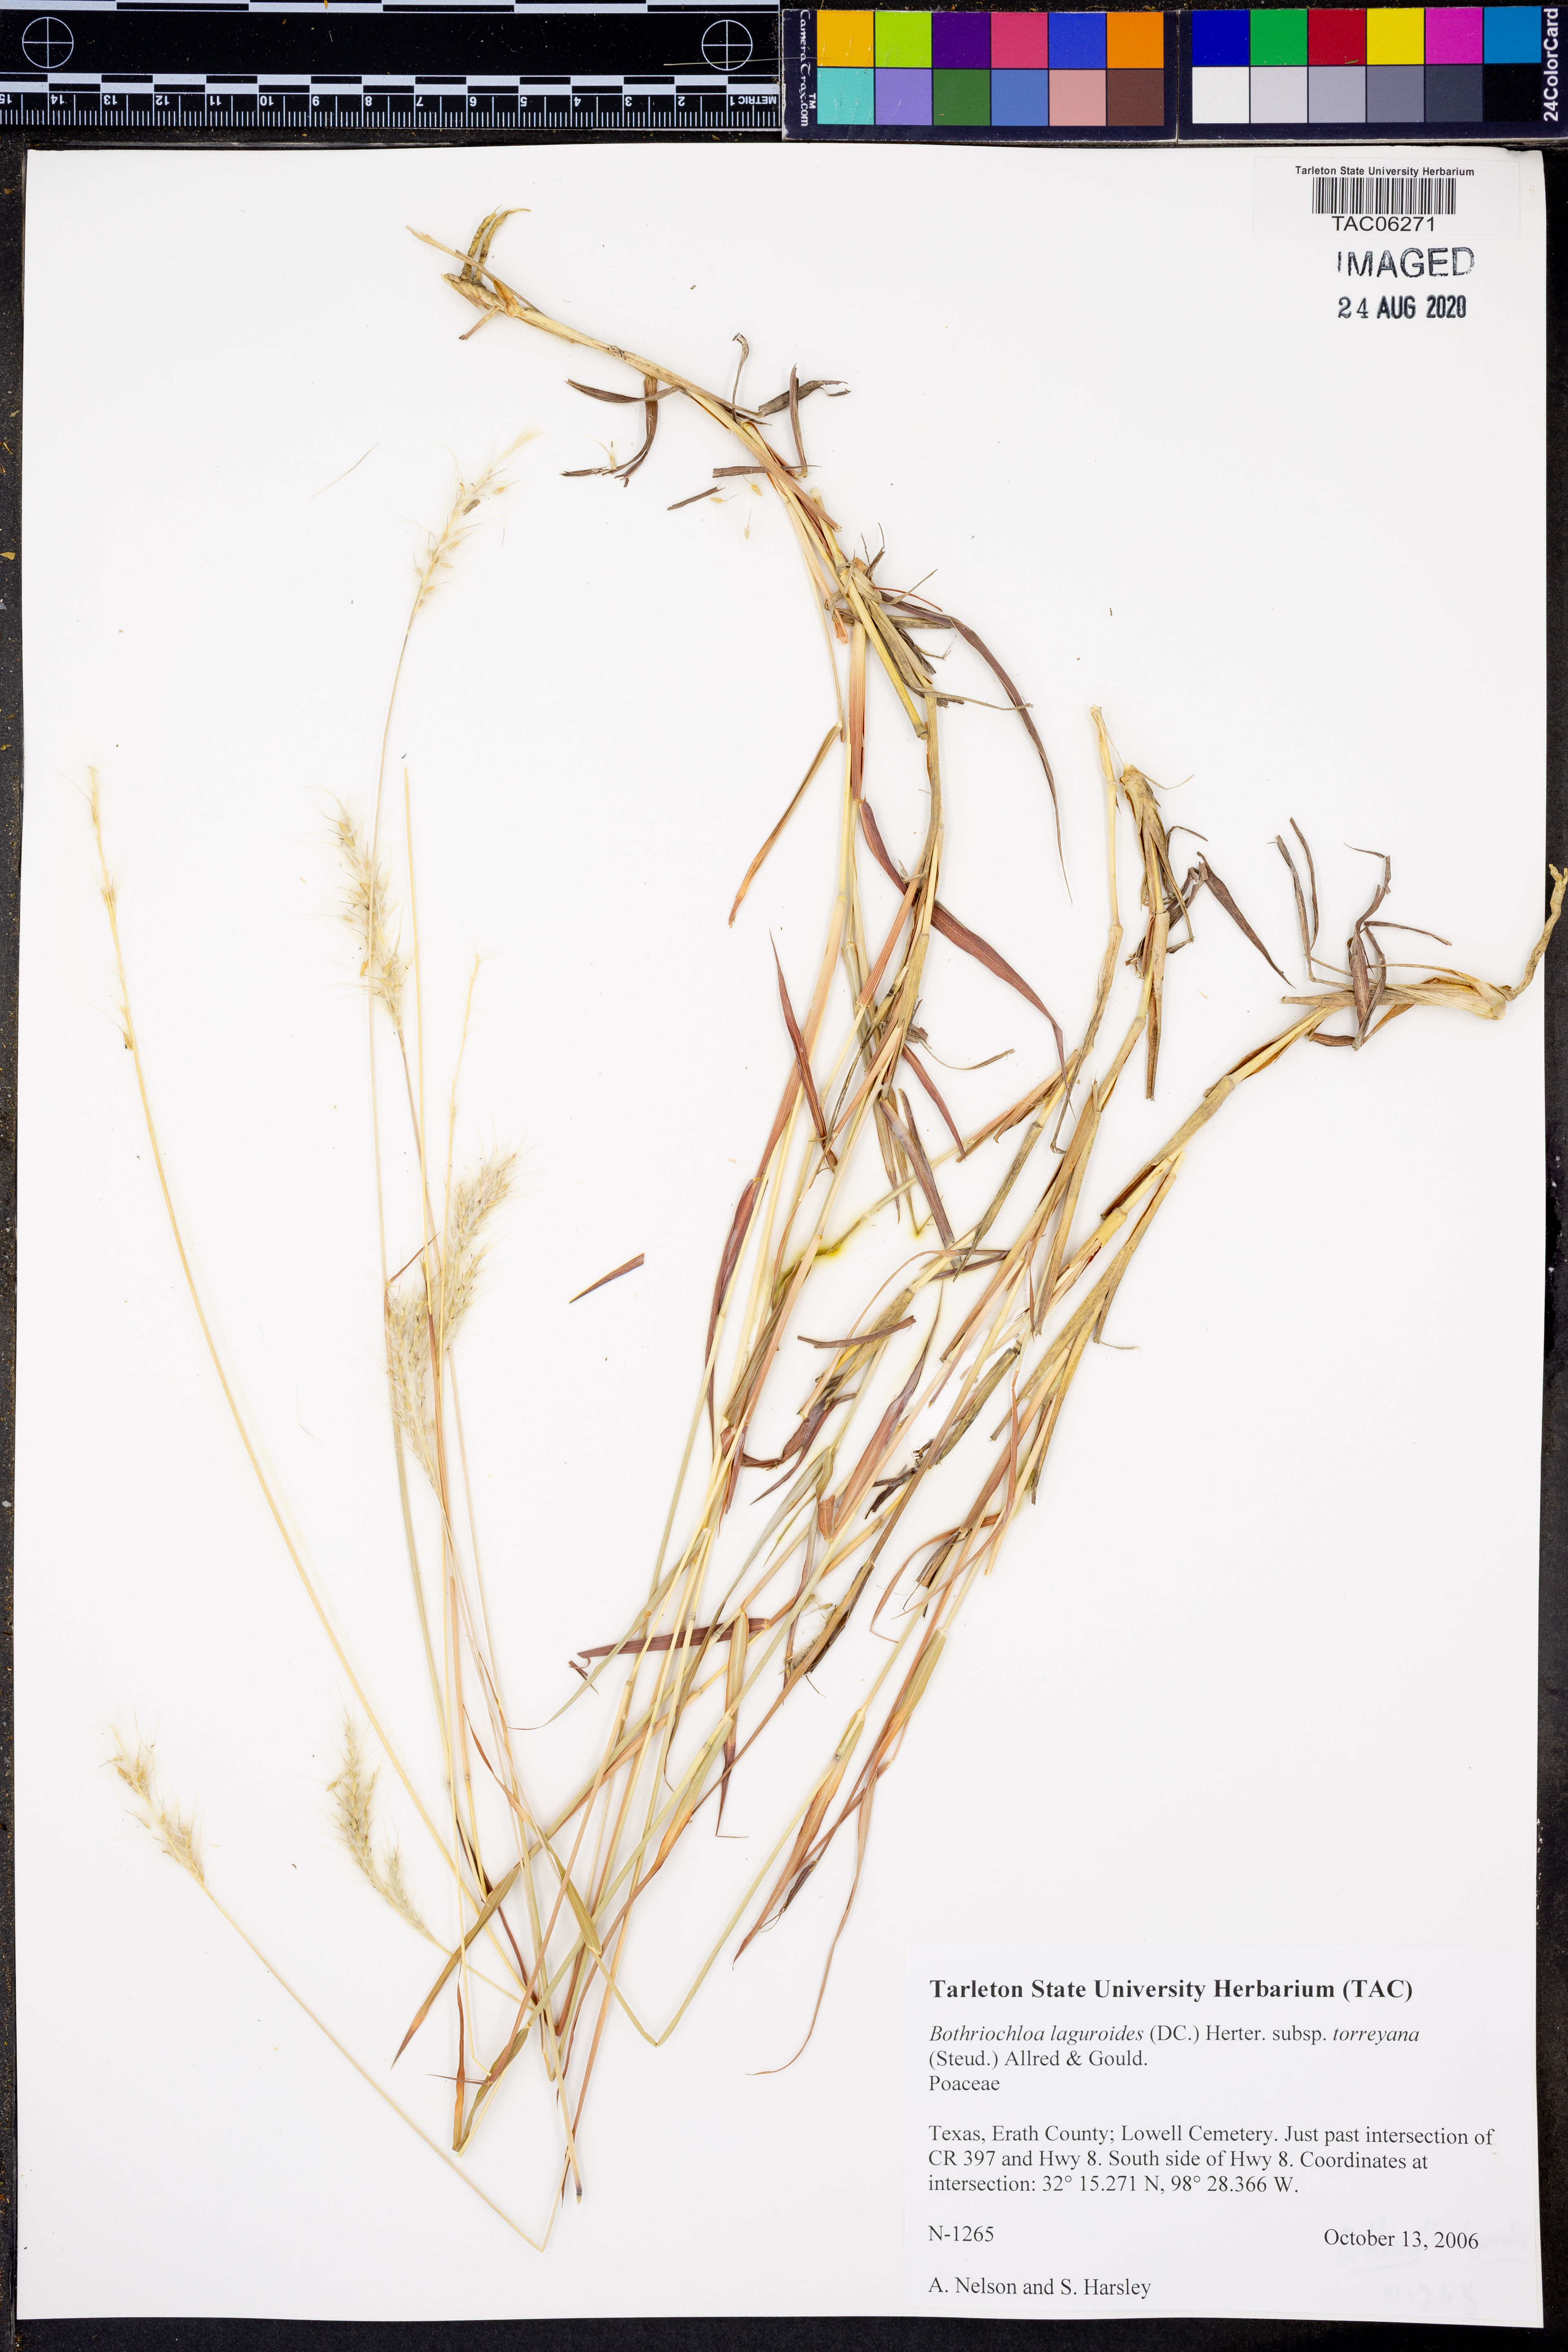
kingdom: Plantae
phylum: Tracheophyta
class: Liliopsida
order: Poales
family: Poaceae
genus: Bothriochloa
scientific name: Bothriochloa torreyana
